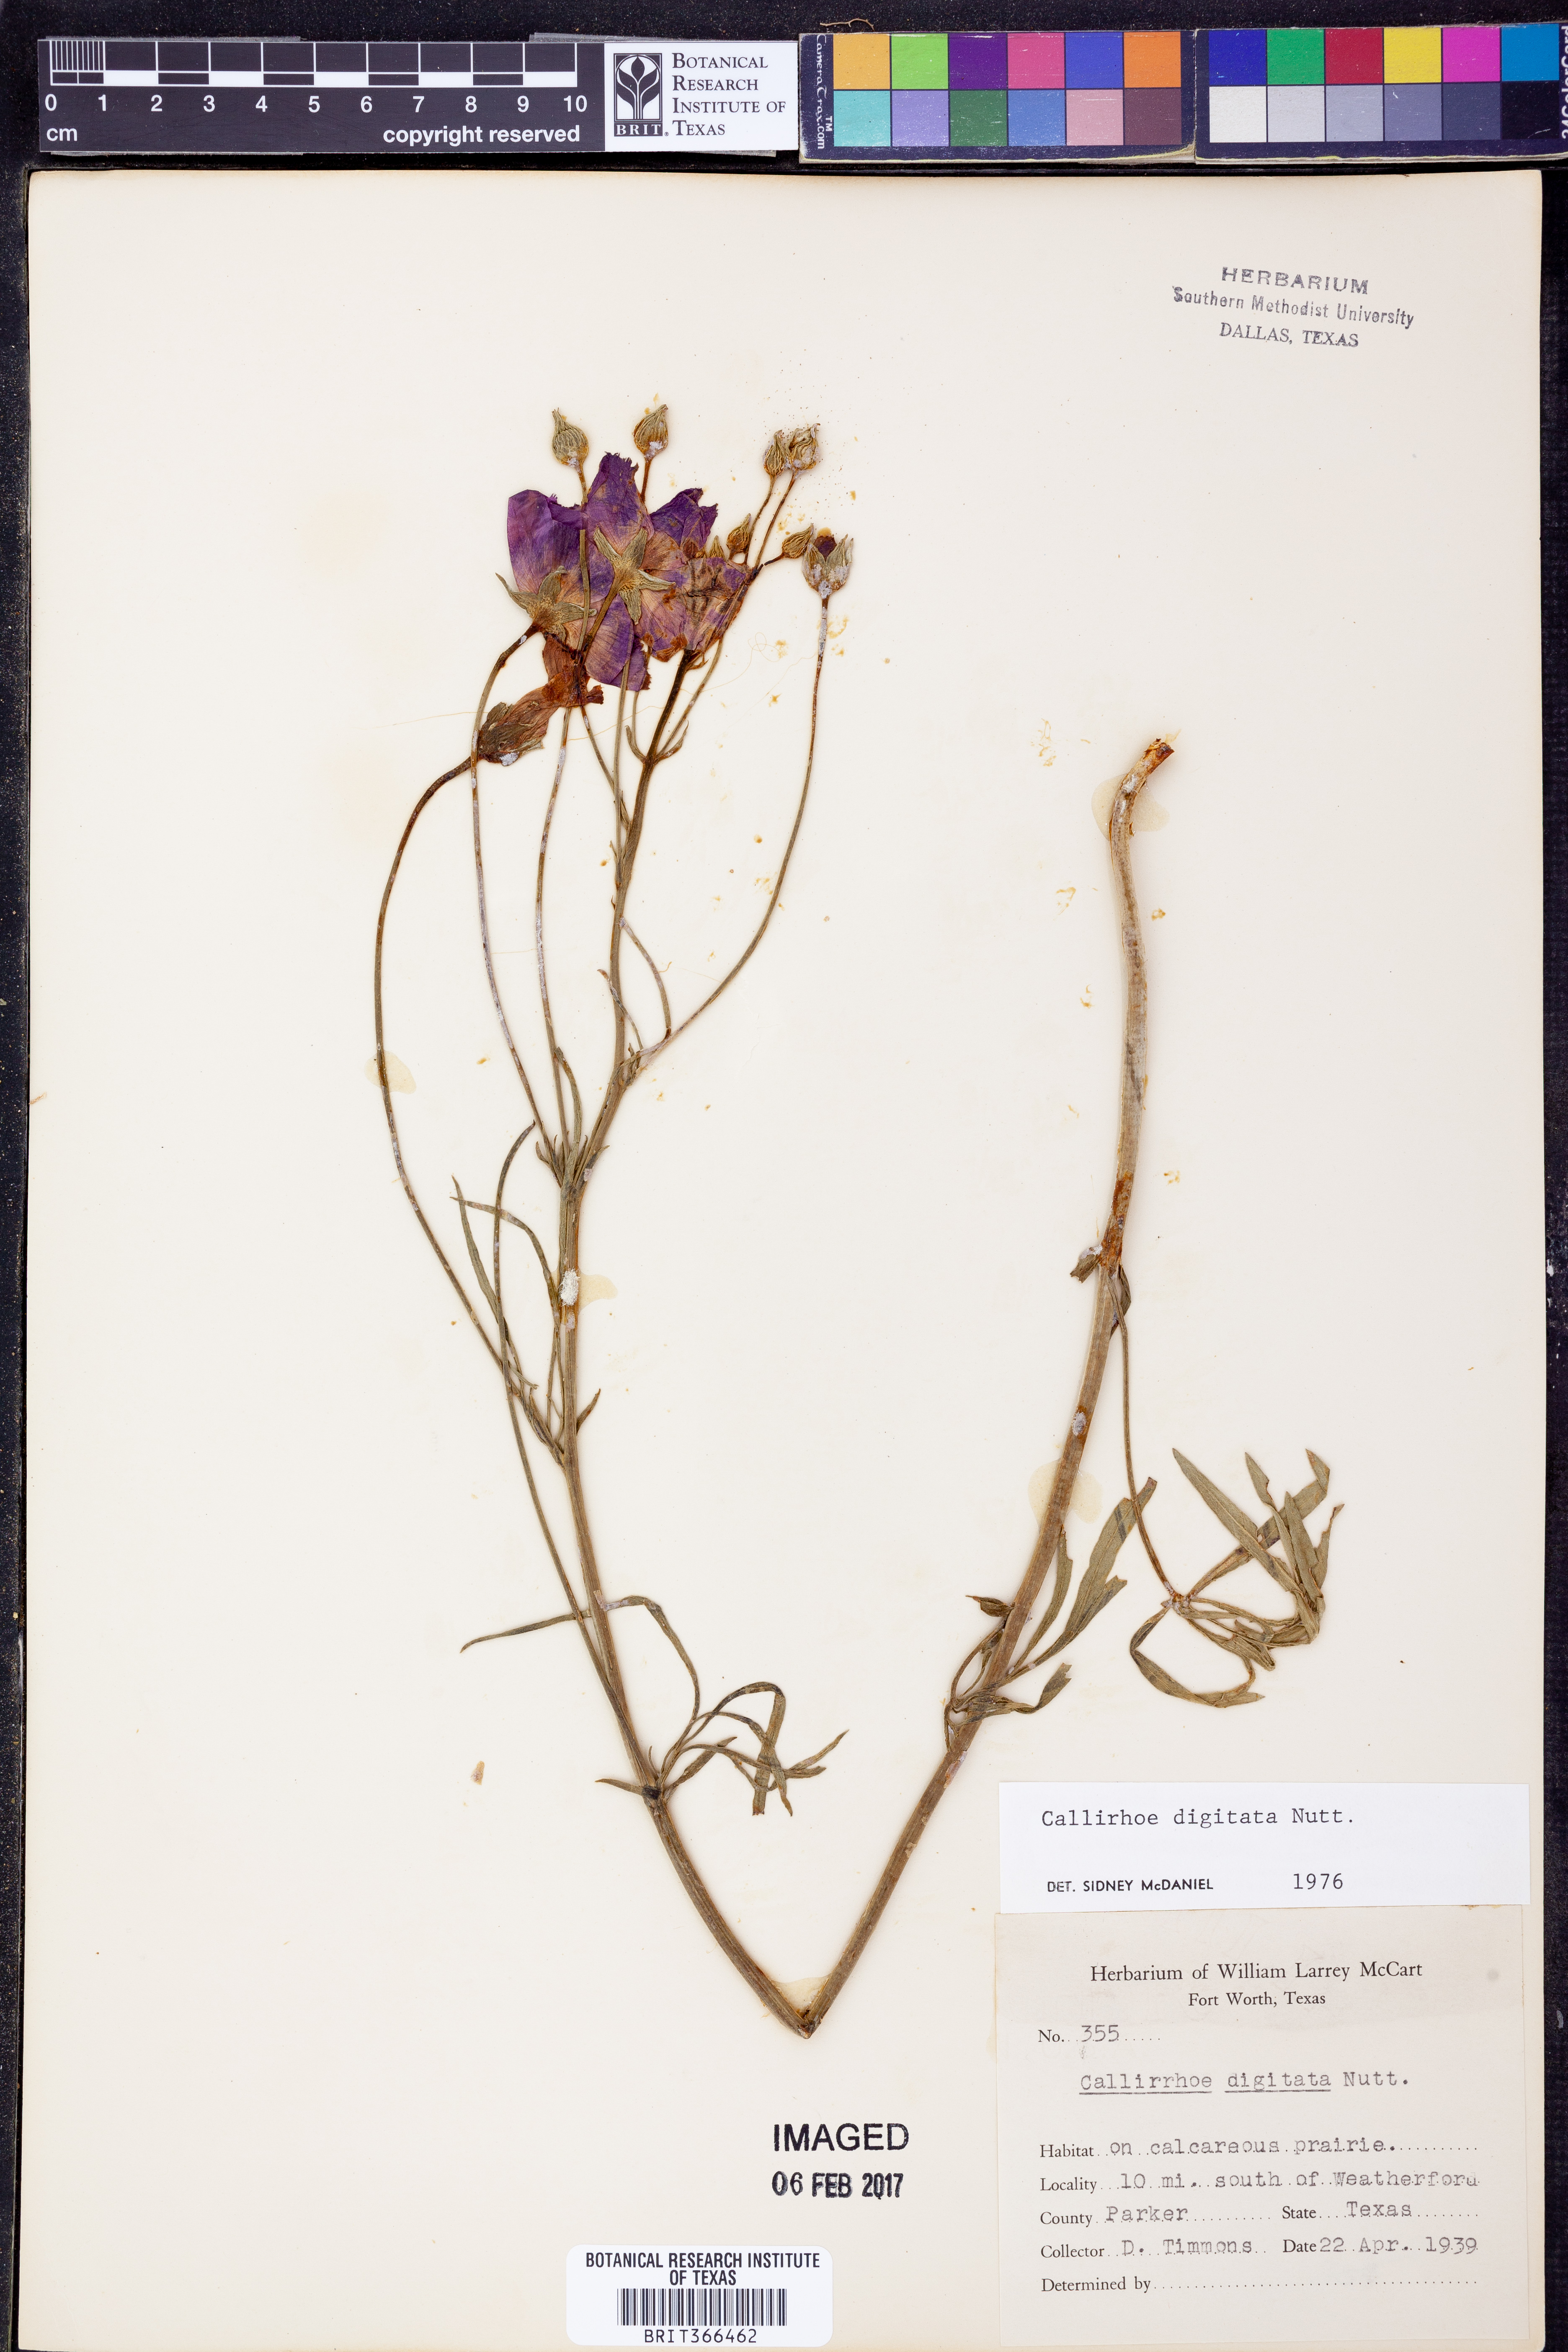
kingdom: Plantae
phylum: Tracheophyta
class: Magnoliopsida
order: Malvales
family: Malvaceae
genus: Callirhoe
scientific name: Callirhoe digitata
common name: Finger poppy-mallow
